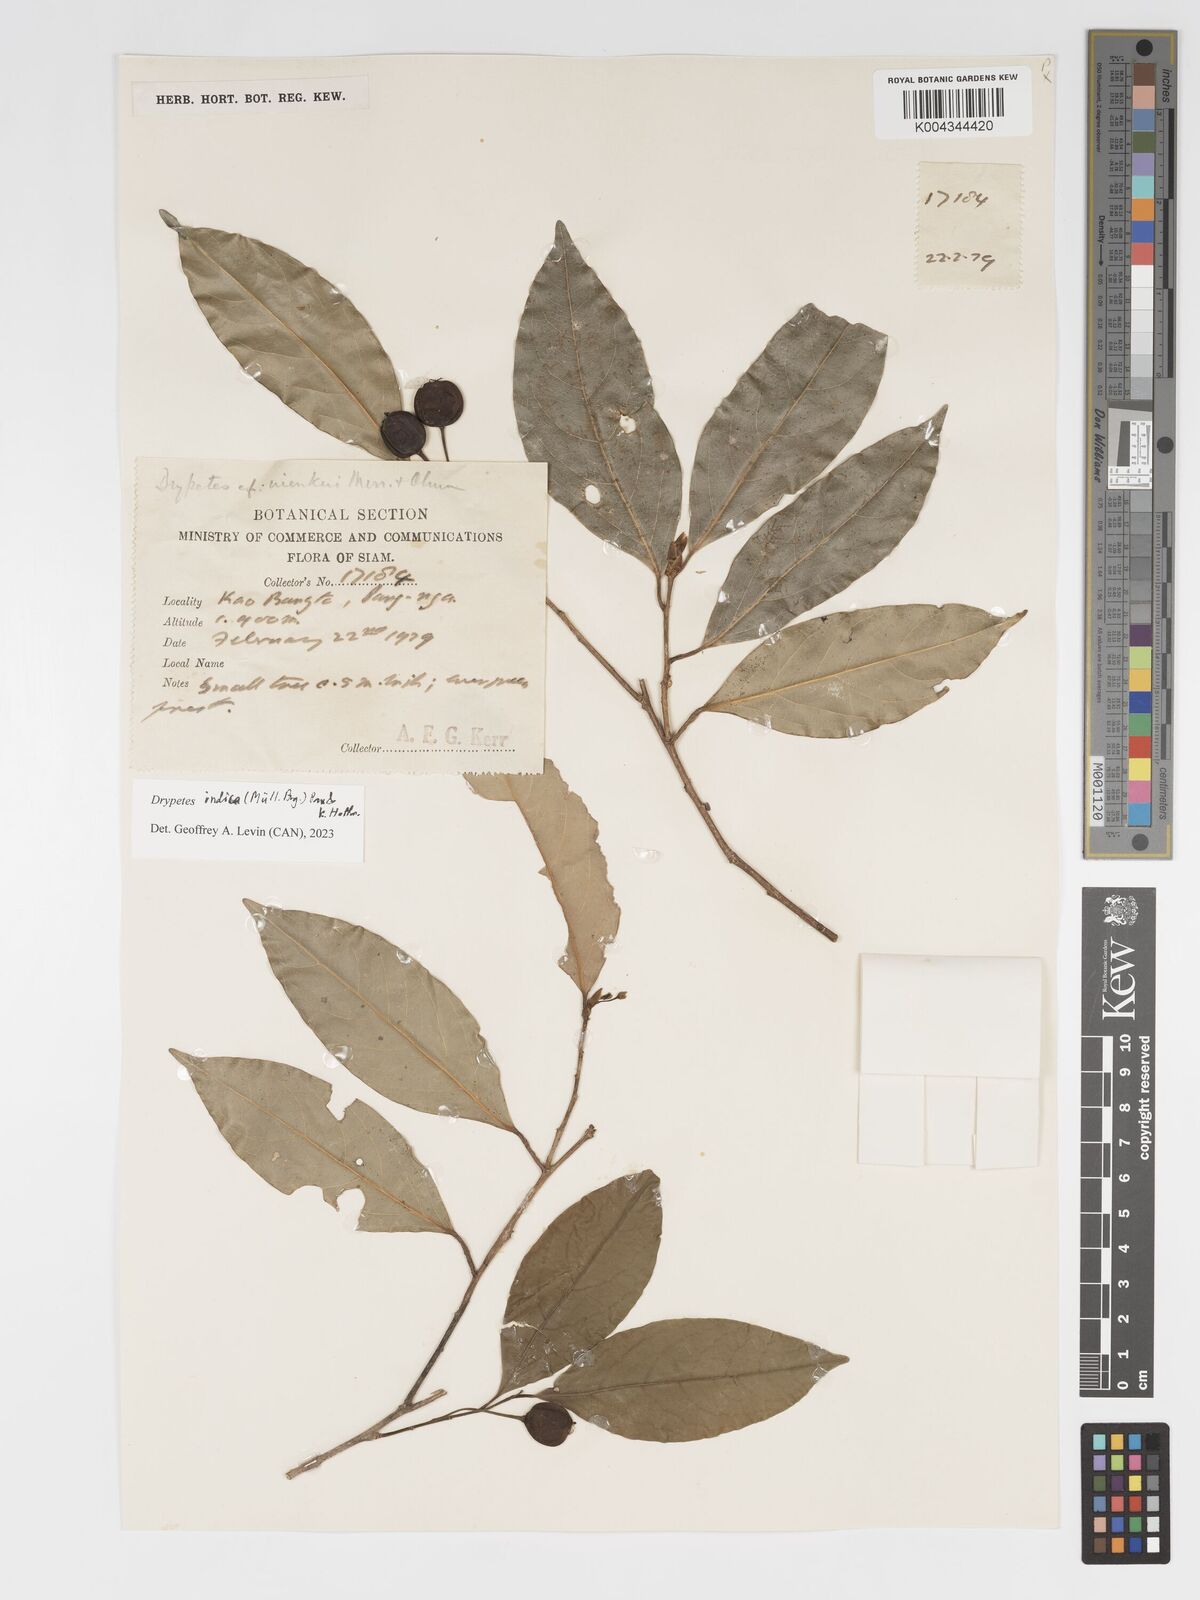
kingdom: Plantae
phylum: Tracheophyta
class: Magnoliopsida
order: Malpighiales
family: Putranjivaceae
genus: Drypetes
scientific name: Drypetes indica
